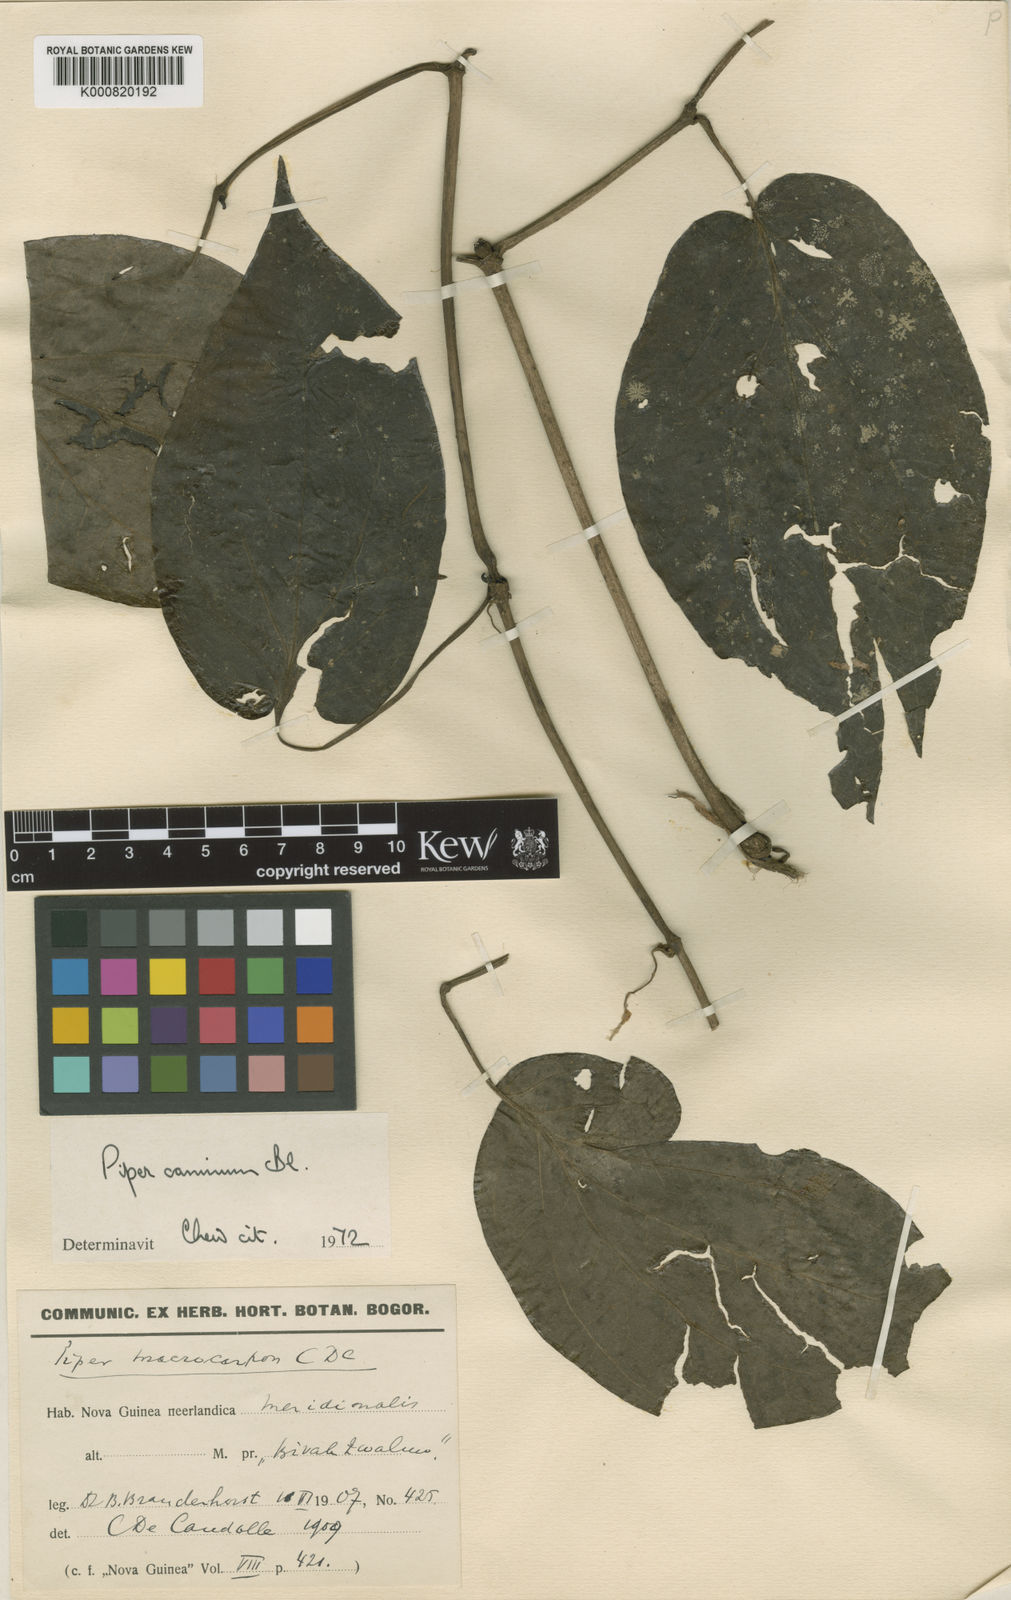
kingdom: Plantae
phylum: Tracheophyta
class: Magnoliopsida
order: Piperales
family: Piperaceae
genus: Piper
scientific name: Piper lanatum
